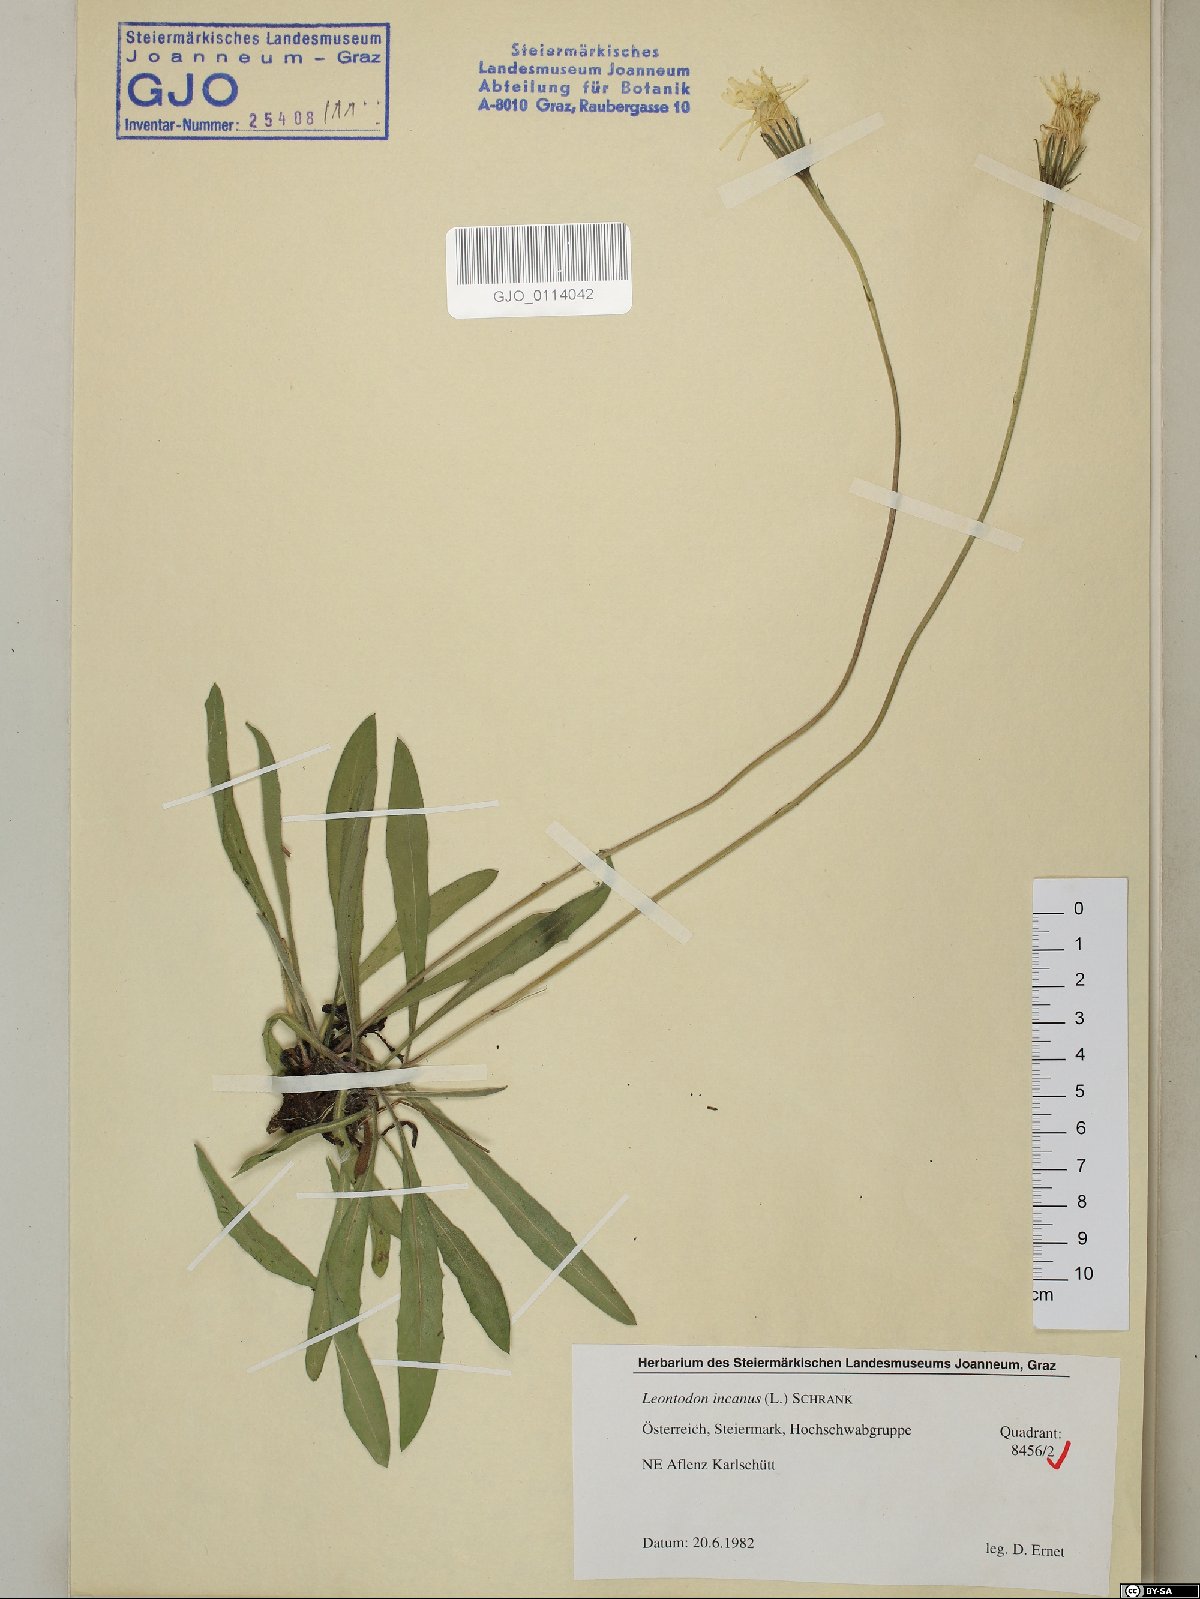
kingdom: Plantae
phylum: Tracheophyta
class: Magnoliopsida
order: Asterales
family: Asteraceae
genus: Leontodon
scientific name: Leontodon incanus
